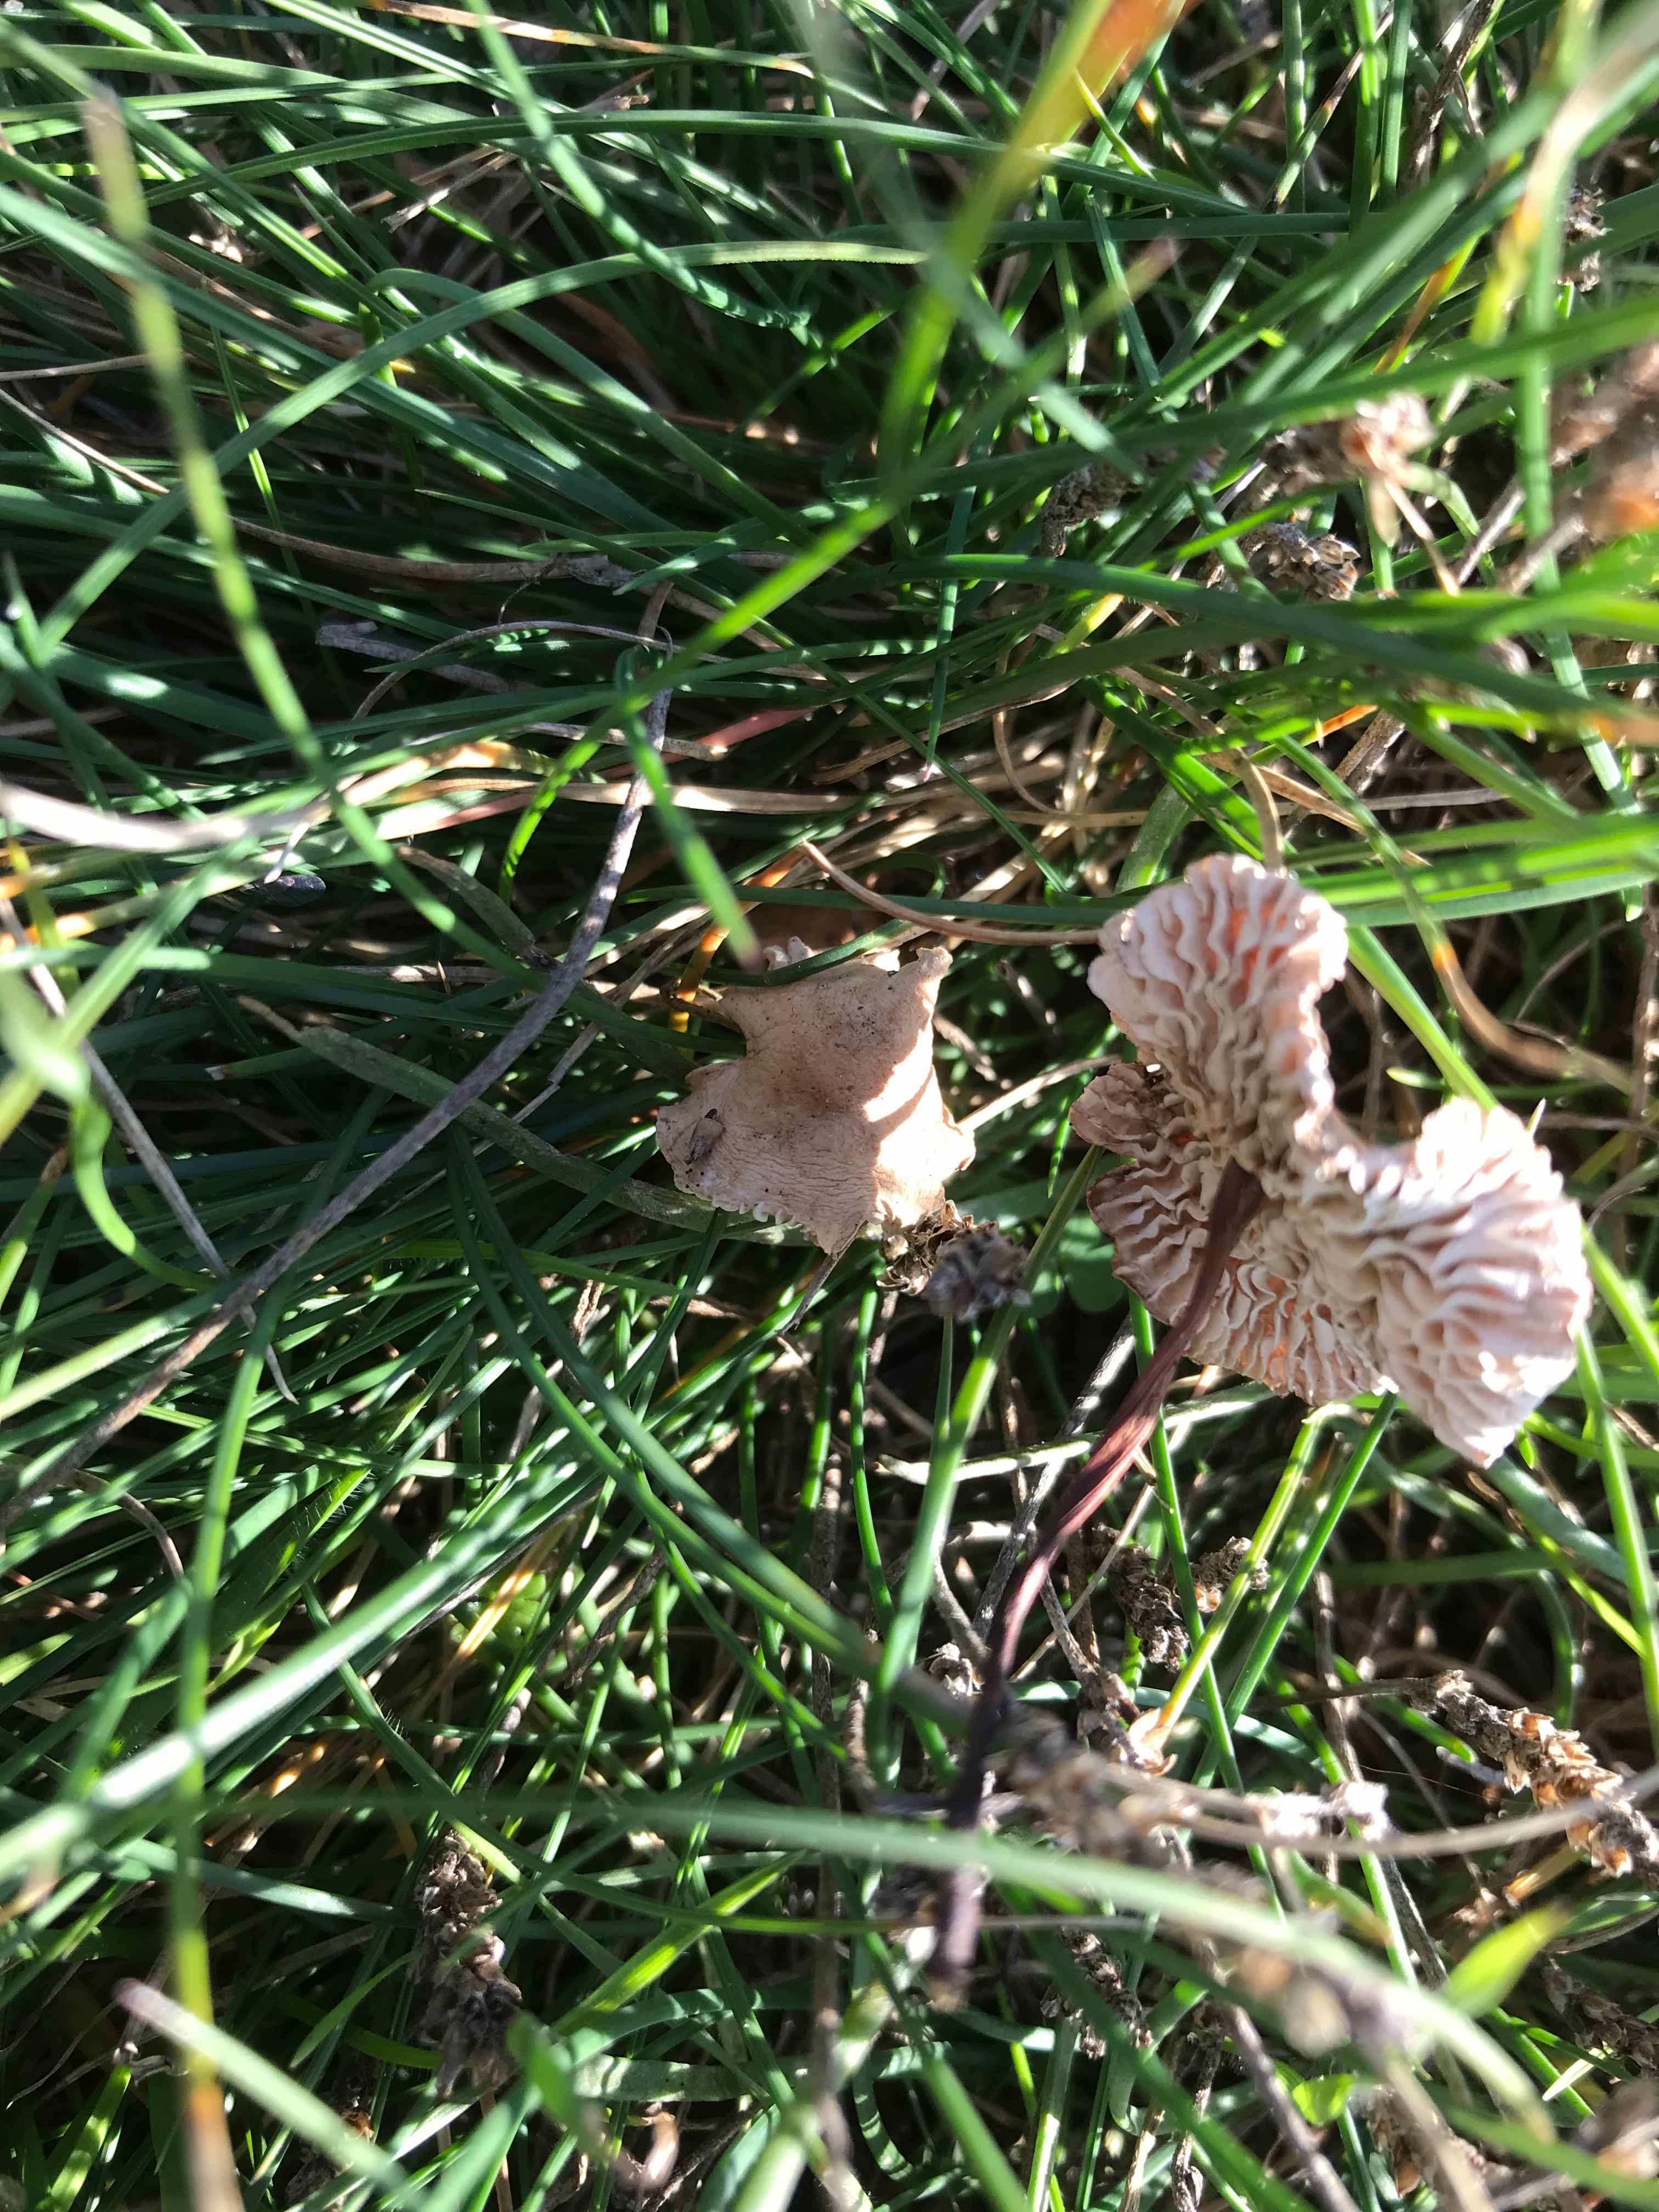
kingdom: Fungi
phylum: Basidiomycota
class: Agaricomycetes
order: Agaricales
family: Omphalotaceae
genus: Mycetinis
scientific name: Mycetinis scorodonius
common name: lille løghat
